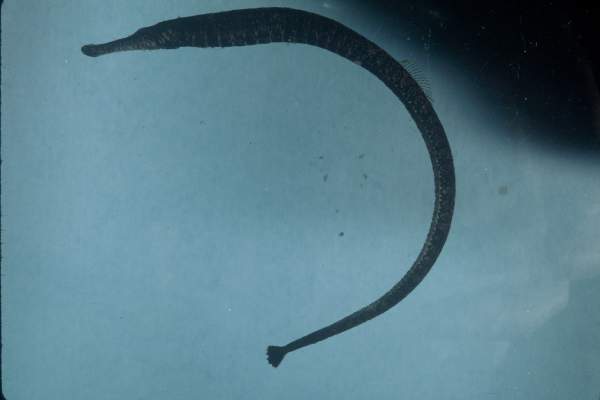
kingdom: Animalia
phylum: Chordata
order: Syngnathiformes
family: Syngnathidae
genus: Hippichthys
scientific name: Hippichthys spicifer
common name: Banded freshwater pipefish
